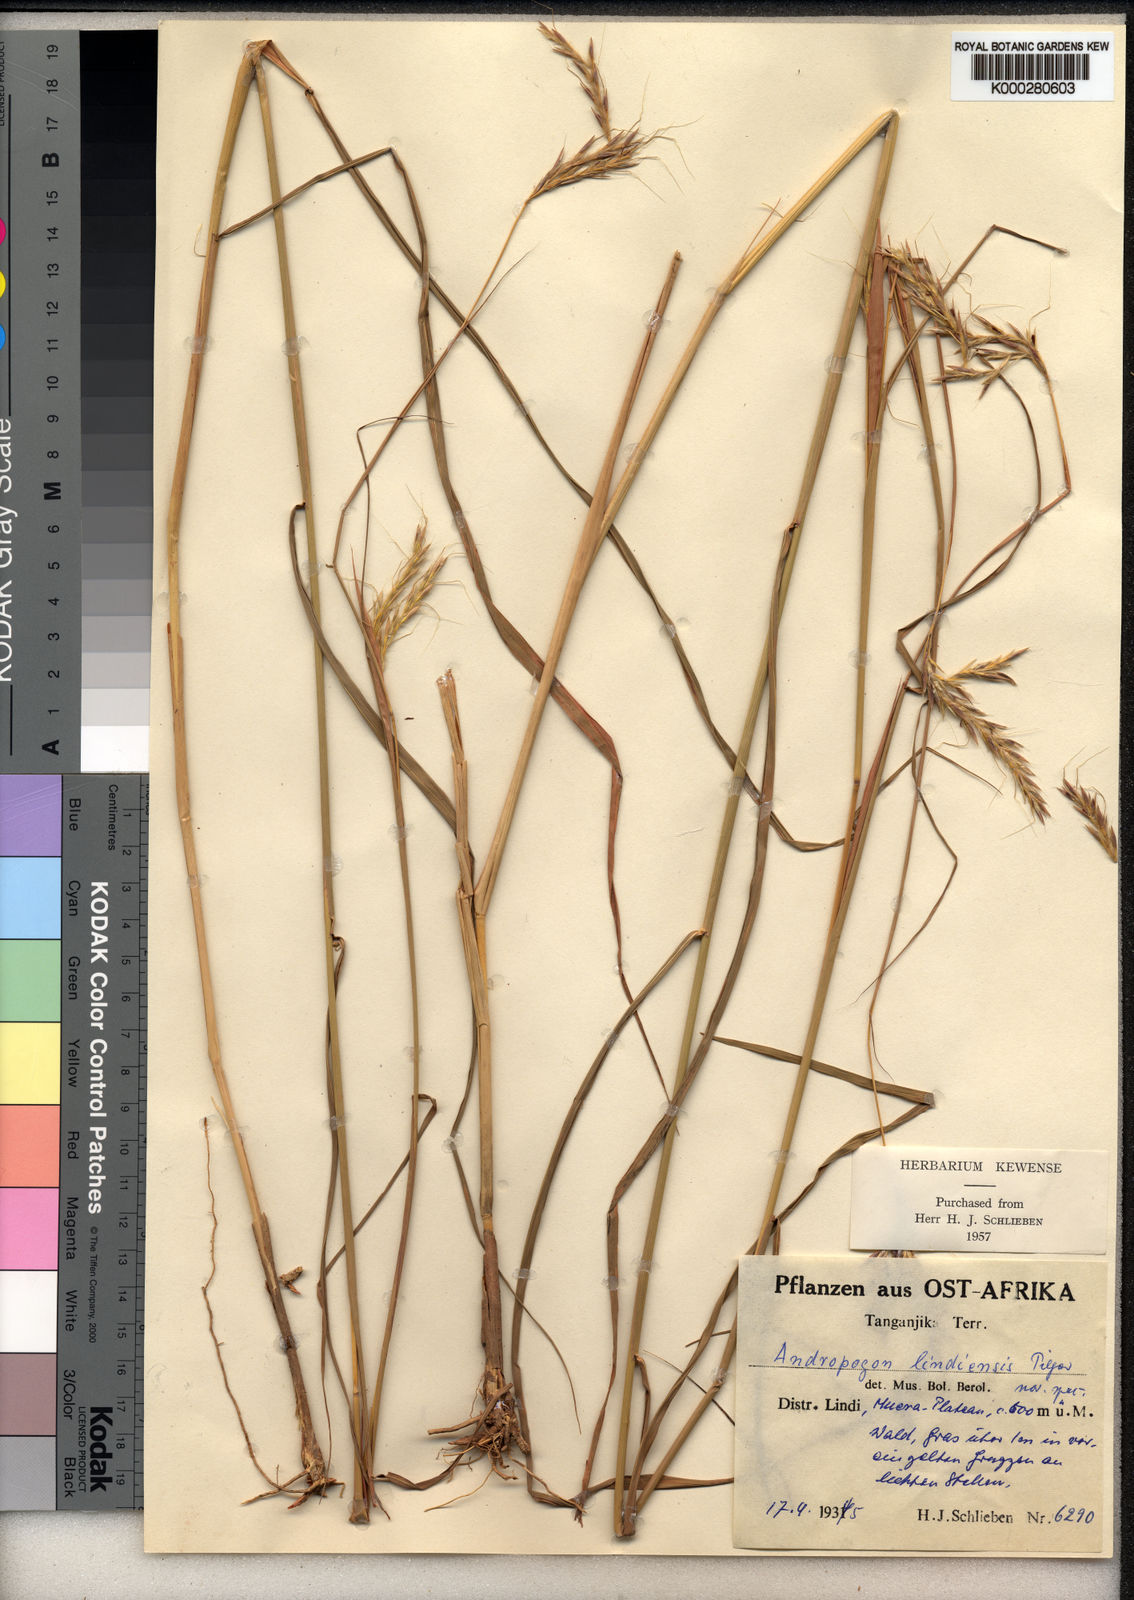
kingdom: Plantae
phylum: Tracheophyta
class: Liliopsida
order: Poales
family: Poaceae
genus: Andropogon
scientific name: Andropogon chinensis
